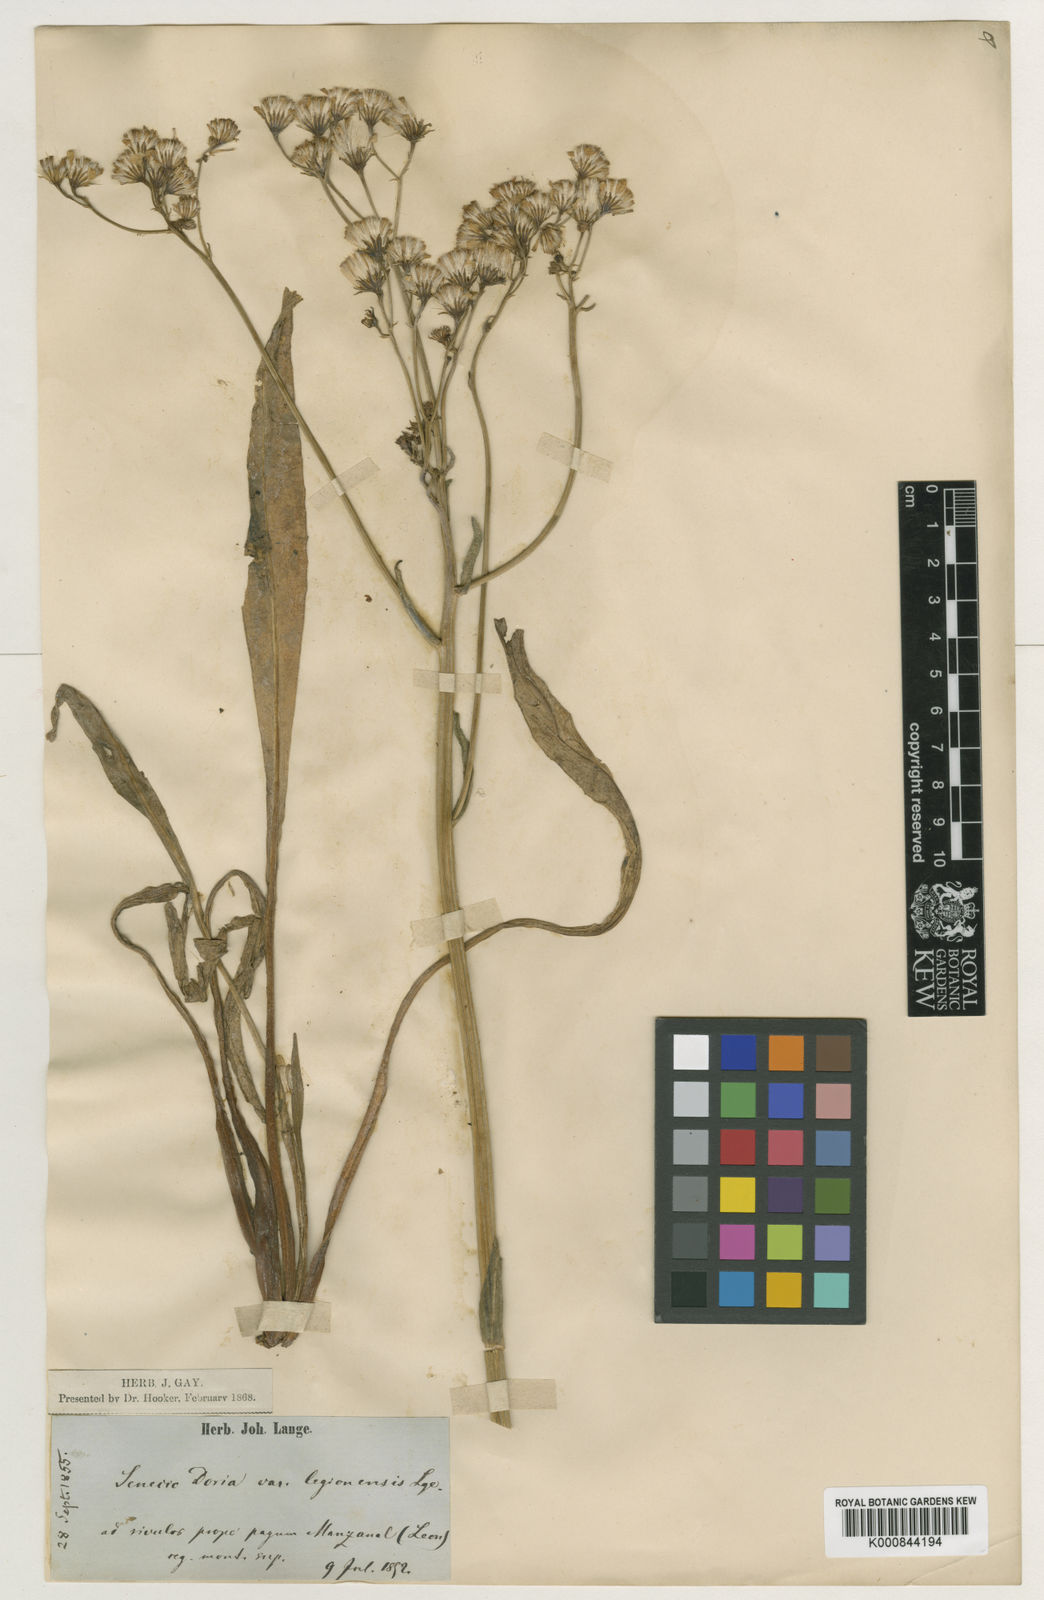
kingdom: Plantae
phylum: Tracheophyta
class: Magnoliopsida
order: Asterales
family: Asteraceae
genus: Senecio
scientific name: Senecio legionensis
